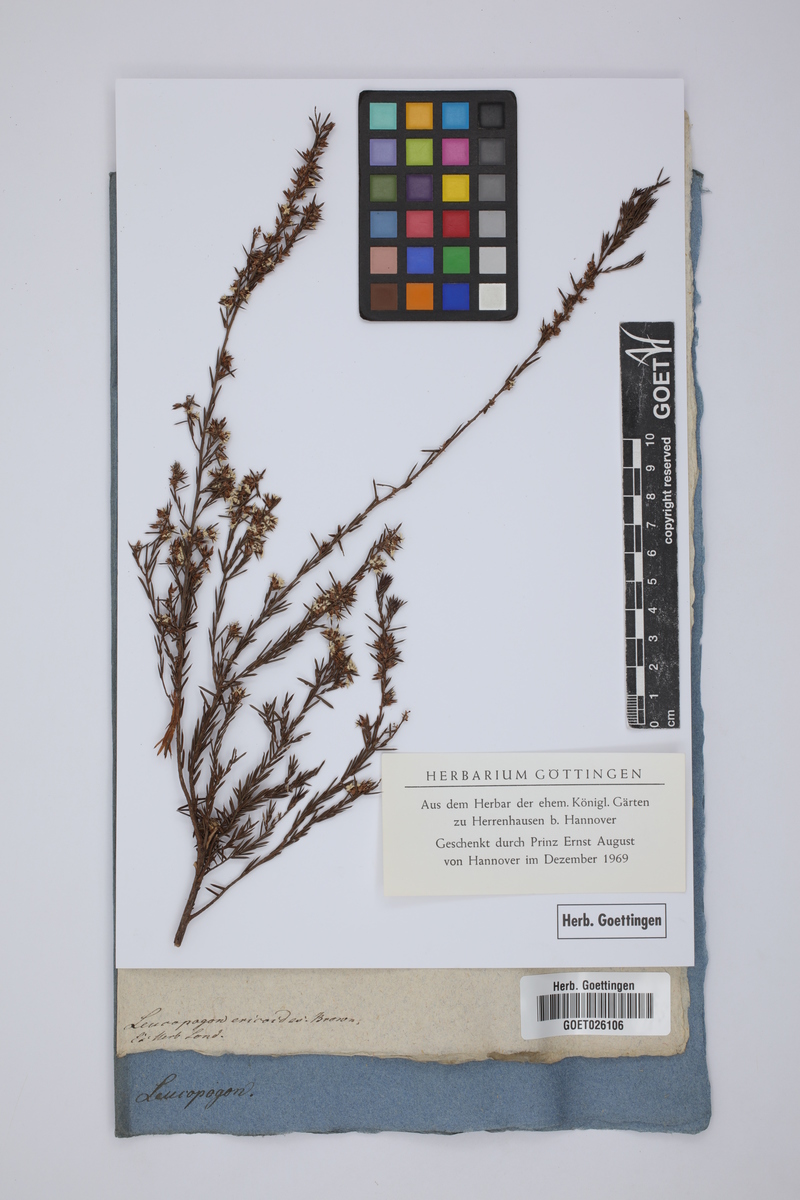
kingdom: Plantae
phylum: Tracheophyta
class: Magnoliopsida
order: Ericales
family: Ericaceae
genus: Styphelia
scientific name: Styphelia ericoides
